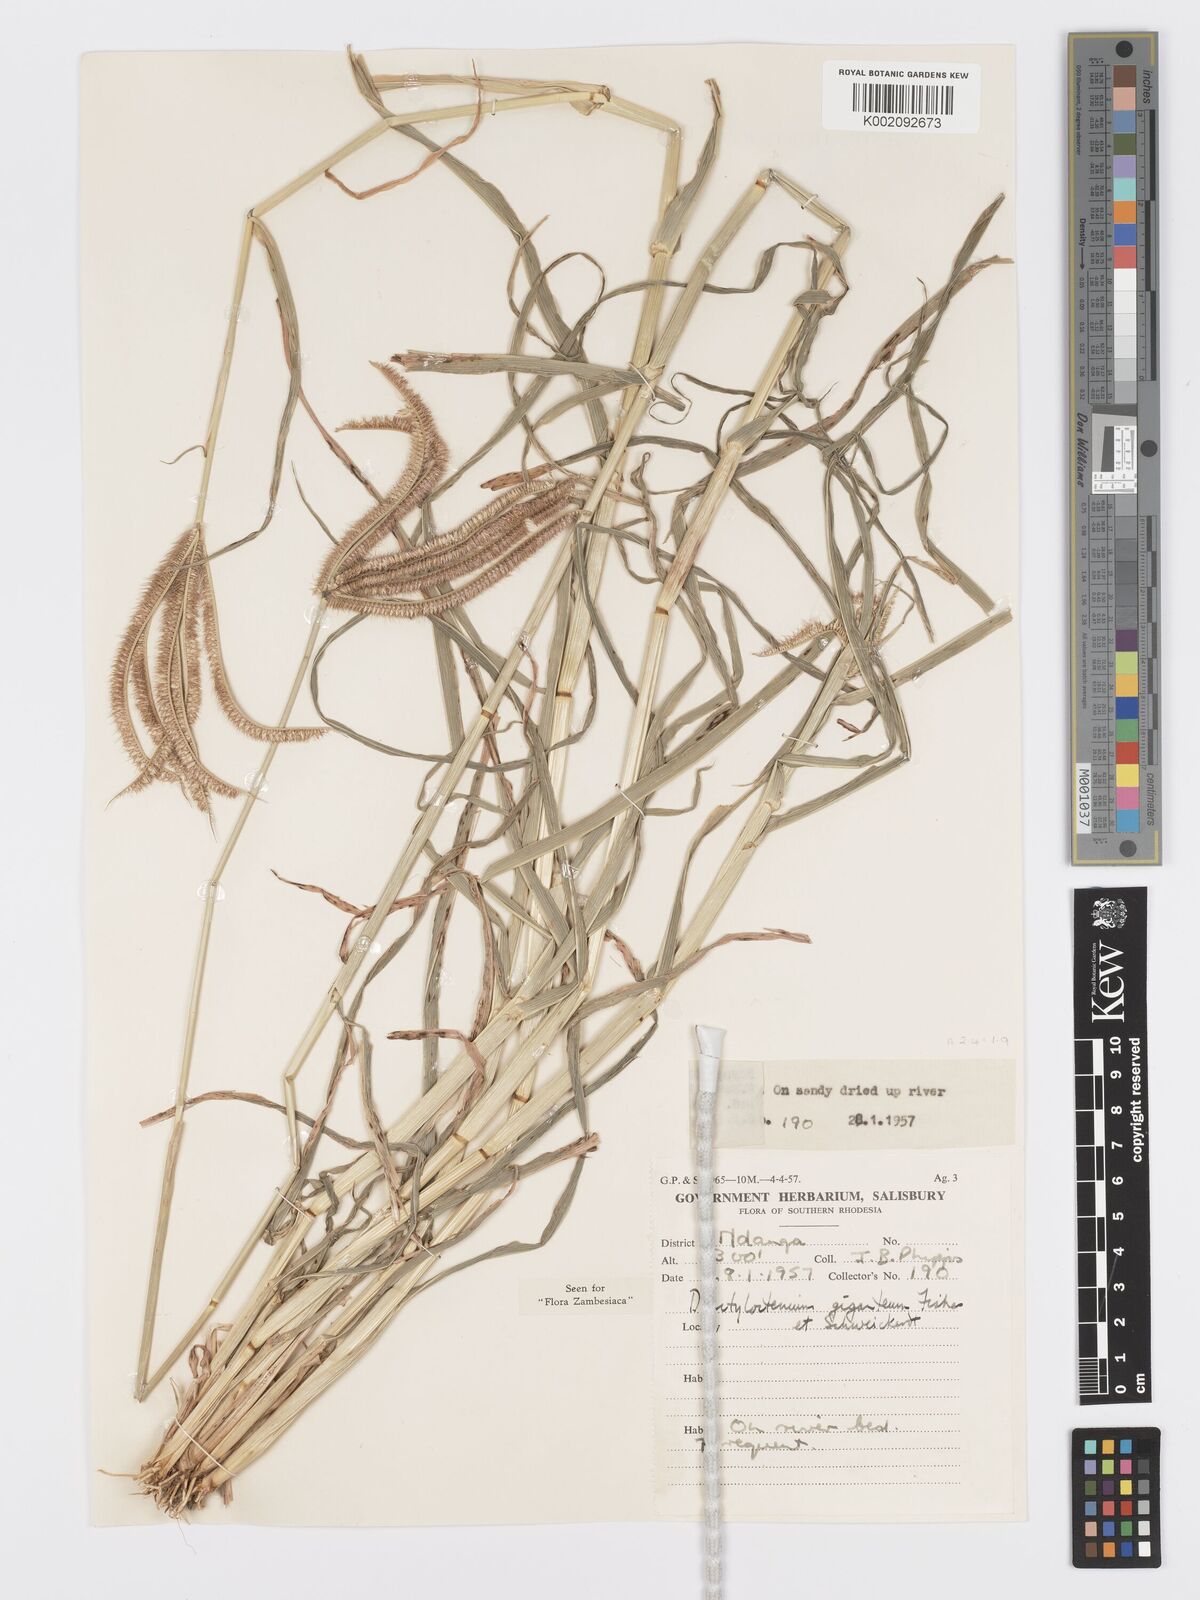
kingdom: Plantae
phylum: Tracheophyta
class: Liliopsida
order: Poales
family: Poaceae
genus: Dactyloctenium
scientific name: Dactyloctenium giganteum
